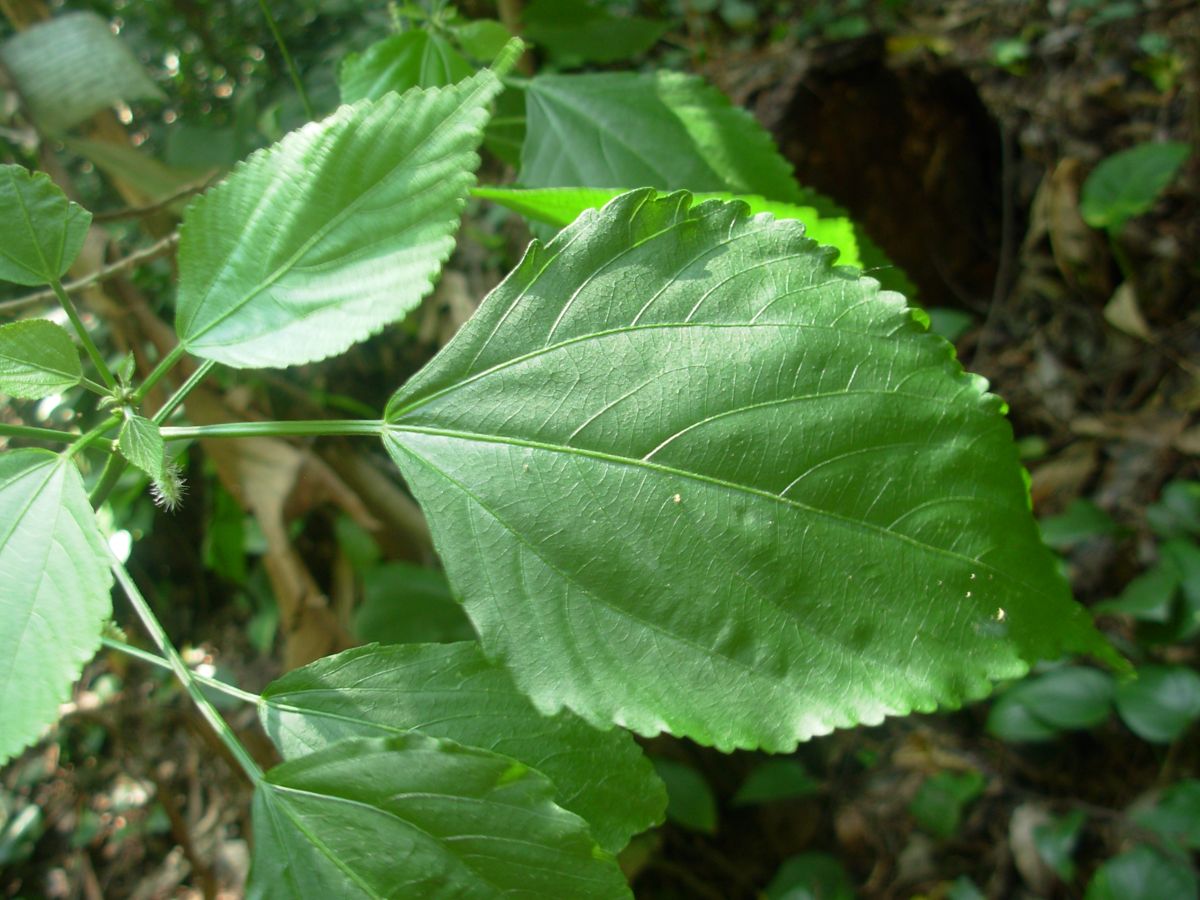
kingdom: Plantae
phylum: Tracheophyta
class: Magnoliopsida
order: Malpighiales
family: Euphorbiaceae
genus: Acalypha
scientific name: Acalypha villosa
